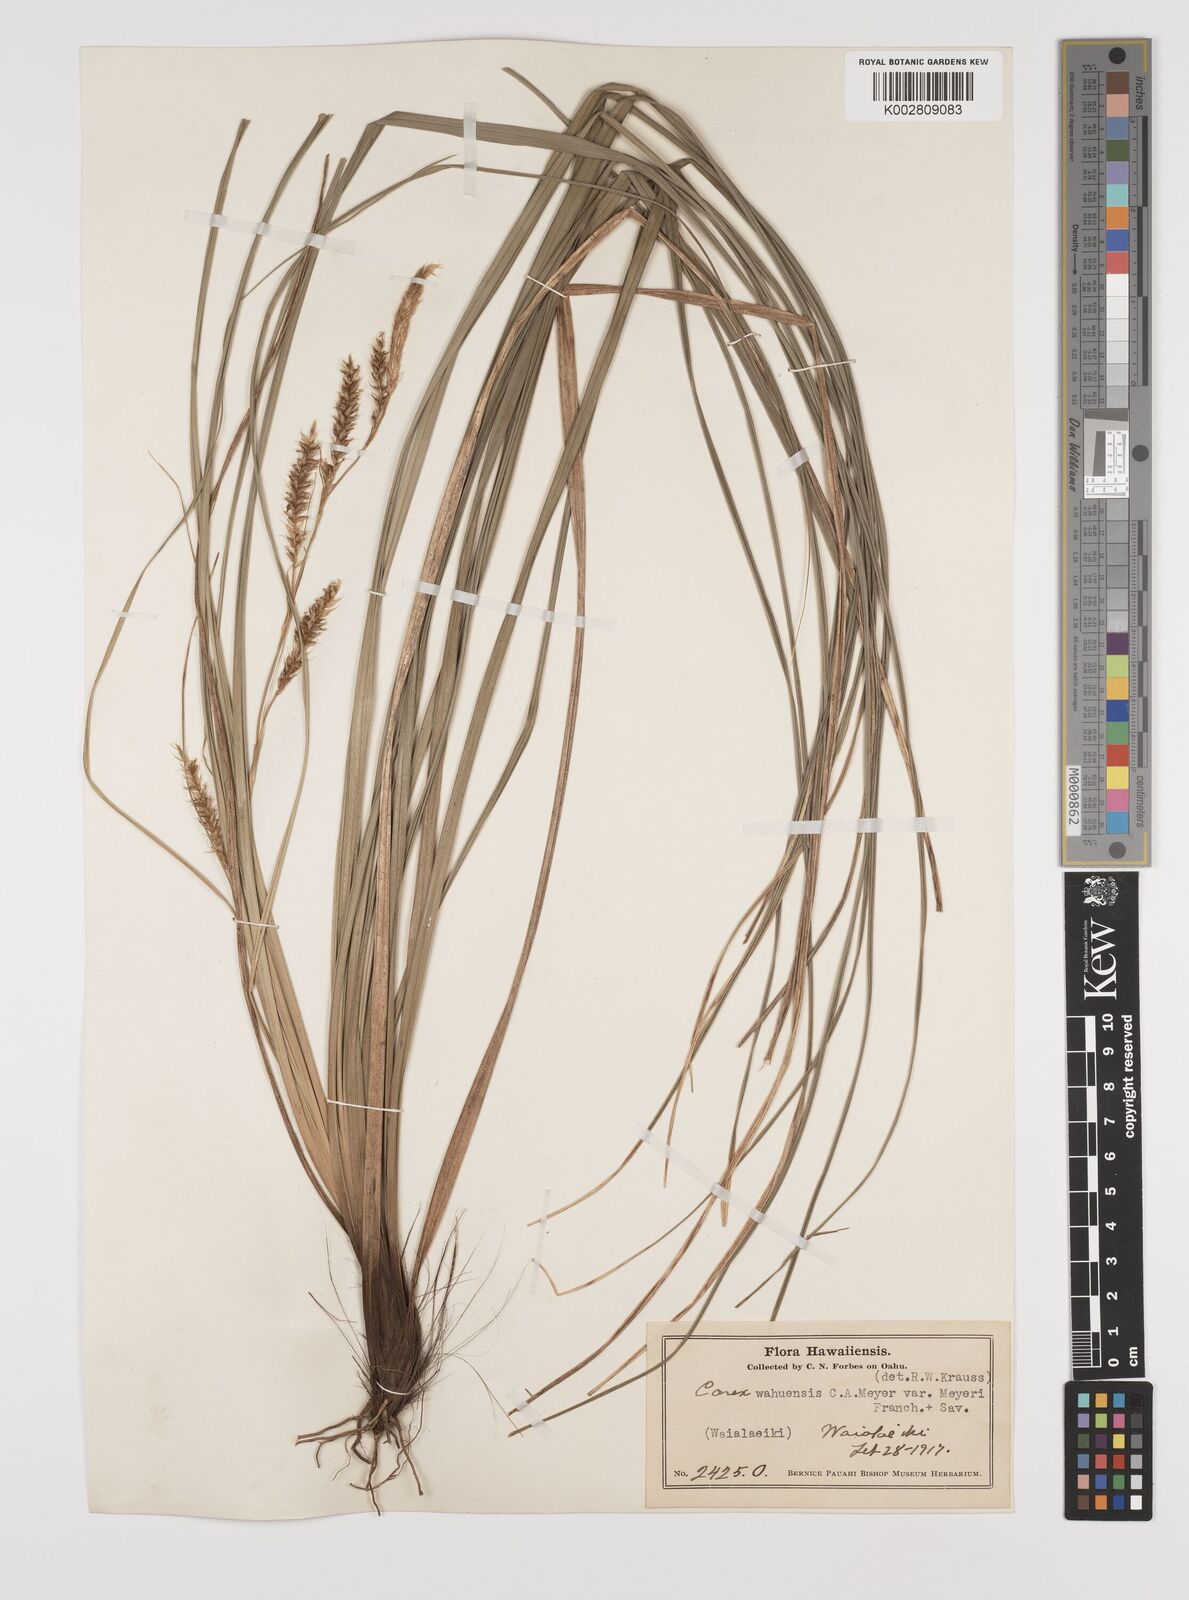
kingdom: Plantae
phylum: Tracheophyta
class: Liliopsida
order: Poales
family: Cyperaceae
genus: Carex
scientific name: Carex wahuensis
